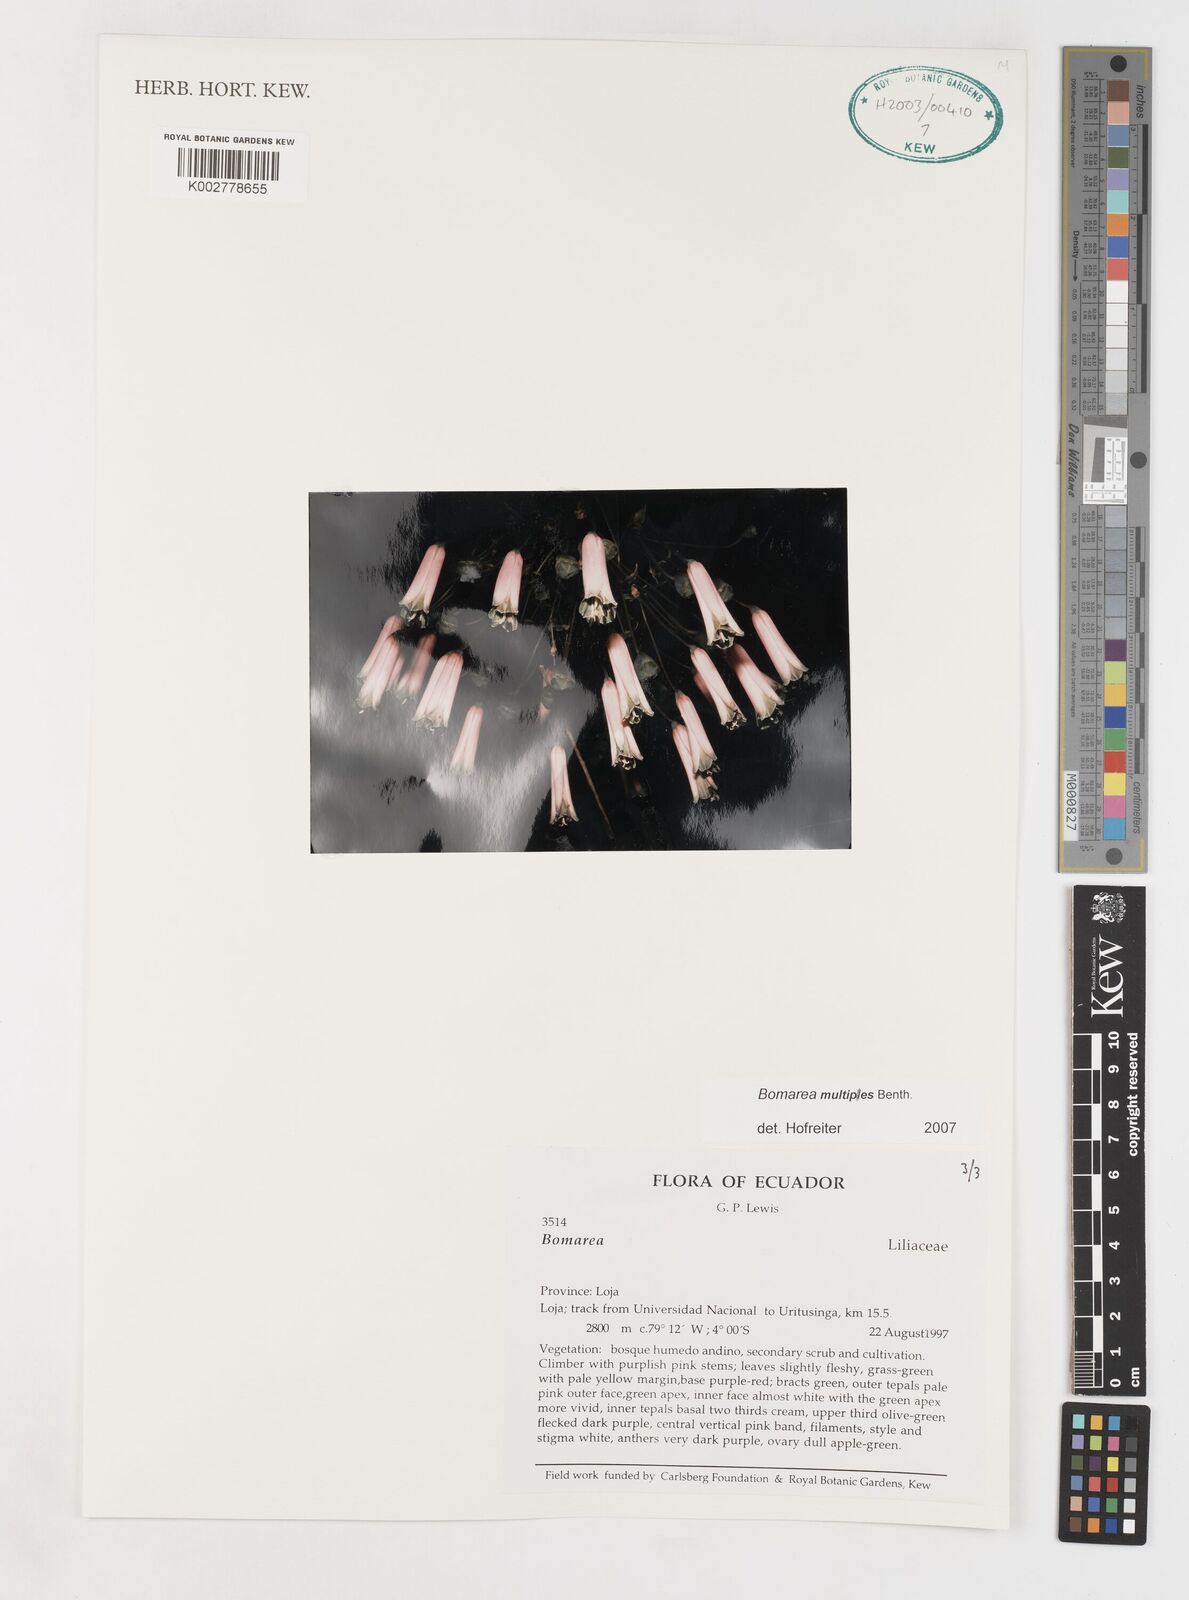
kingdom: Plantae
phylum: Tracheophyta
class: Liliopsida
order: Liliales
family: Alstroemeriaceae
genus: Bomarea
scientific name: Bomarea multipes
